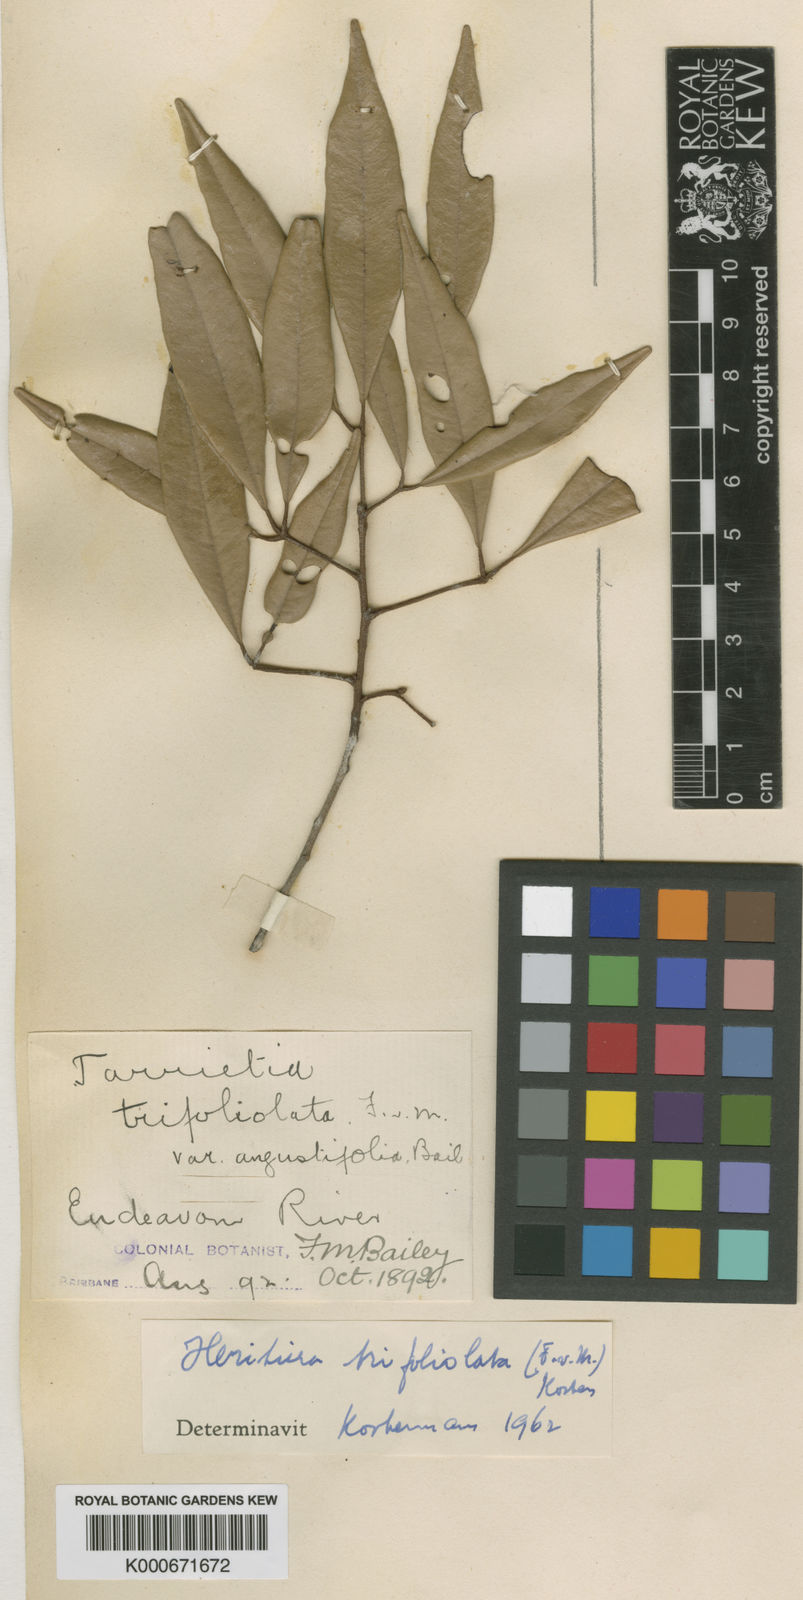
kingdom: Plantae
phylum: Tracheophyta
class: Magnoliopsida
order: Malvales
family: Malvaceae
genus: Argyrodendron
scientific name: Argyrodendron trifoliolatum
